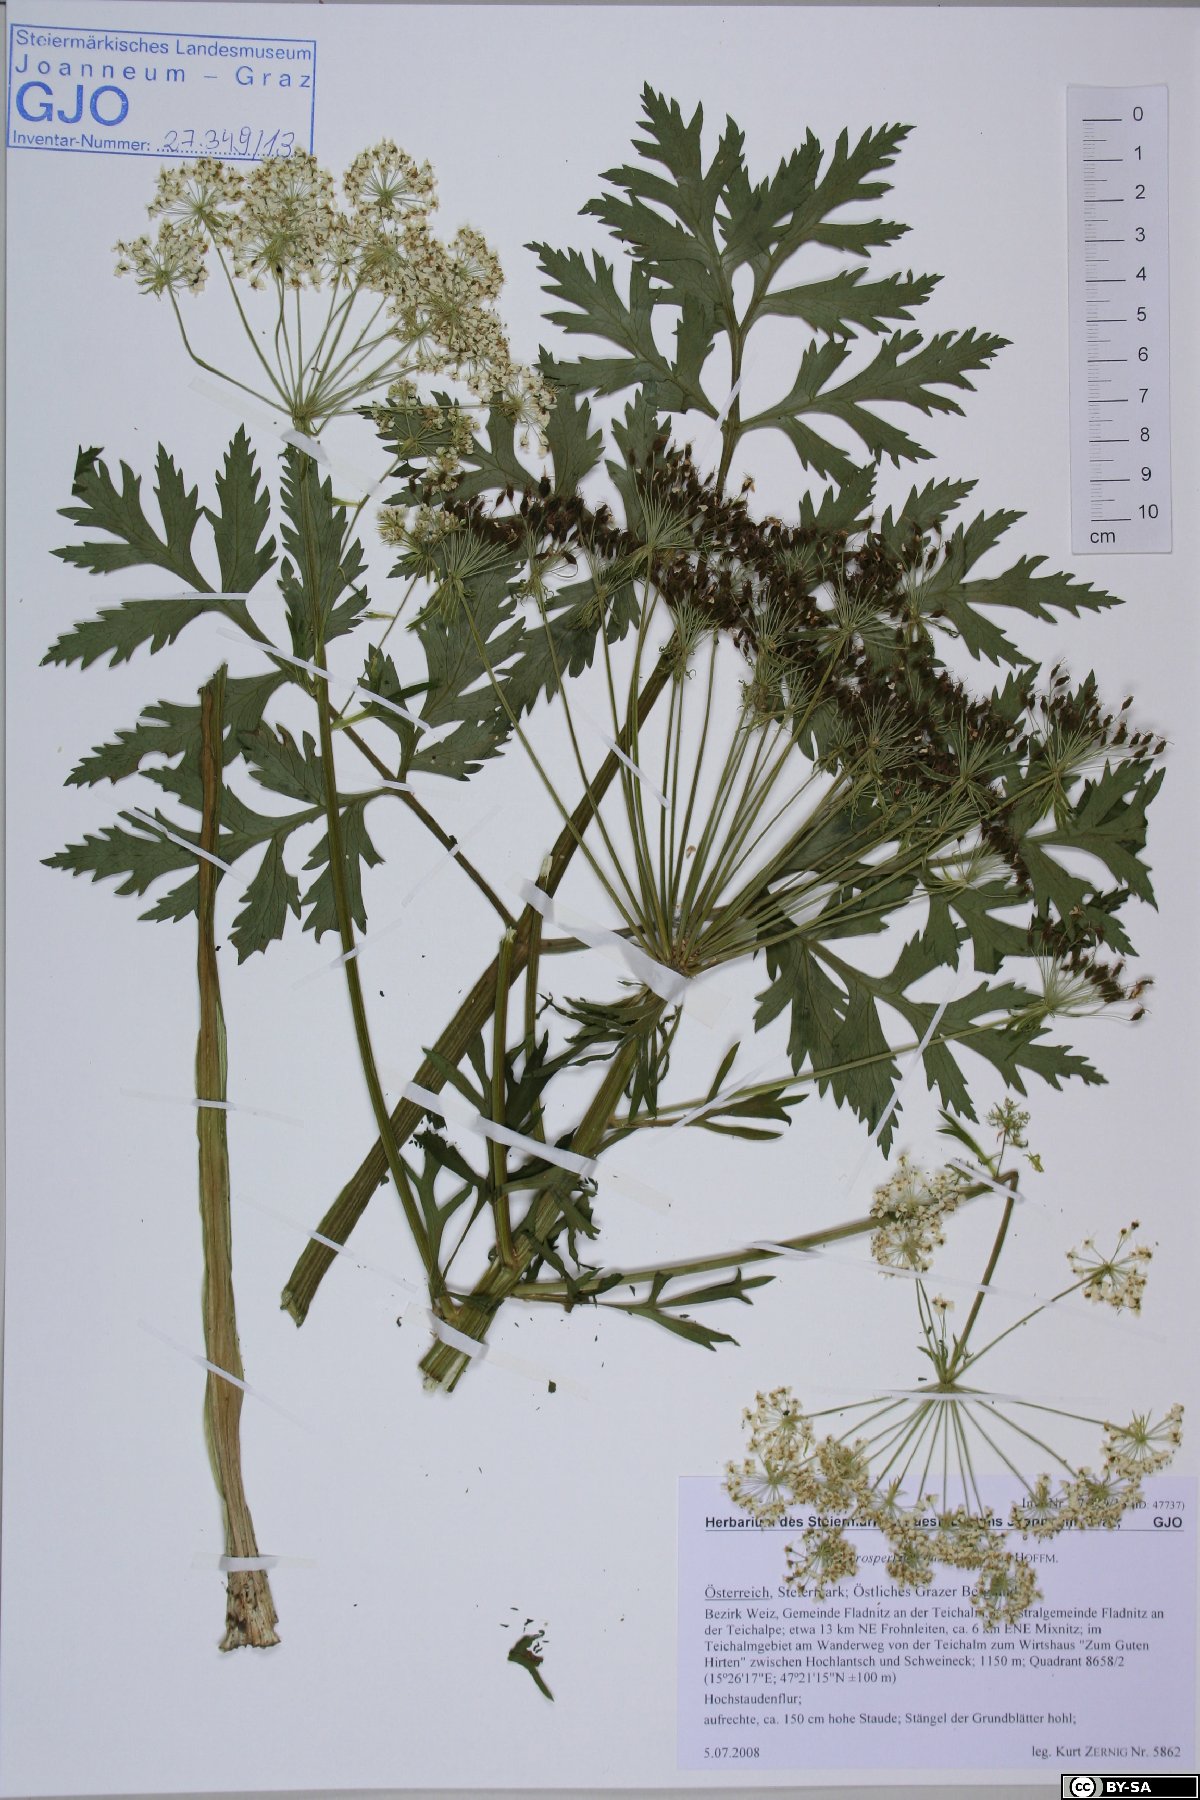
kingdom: Plantae
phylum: Tracheophyta
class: Magnoliopsida
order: Apiales
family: Apiaceae
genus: Pleurospermum
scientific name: Pleurospermum austriacum
